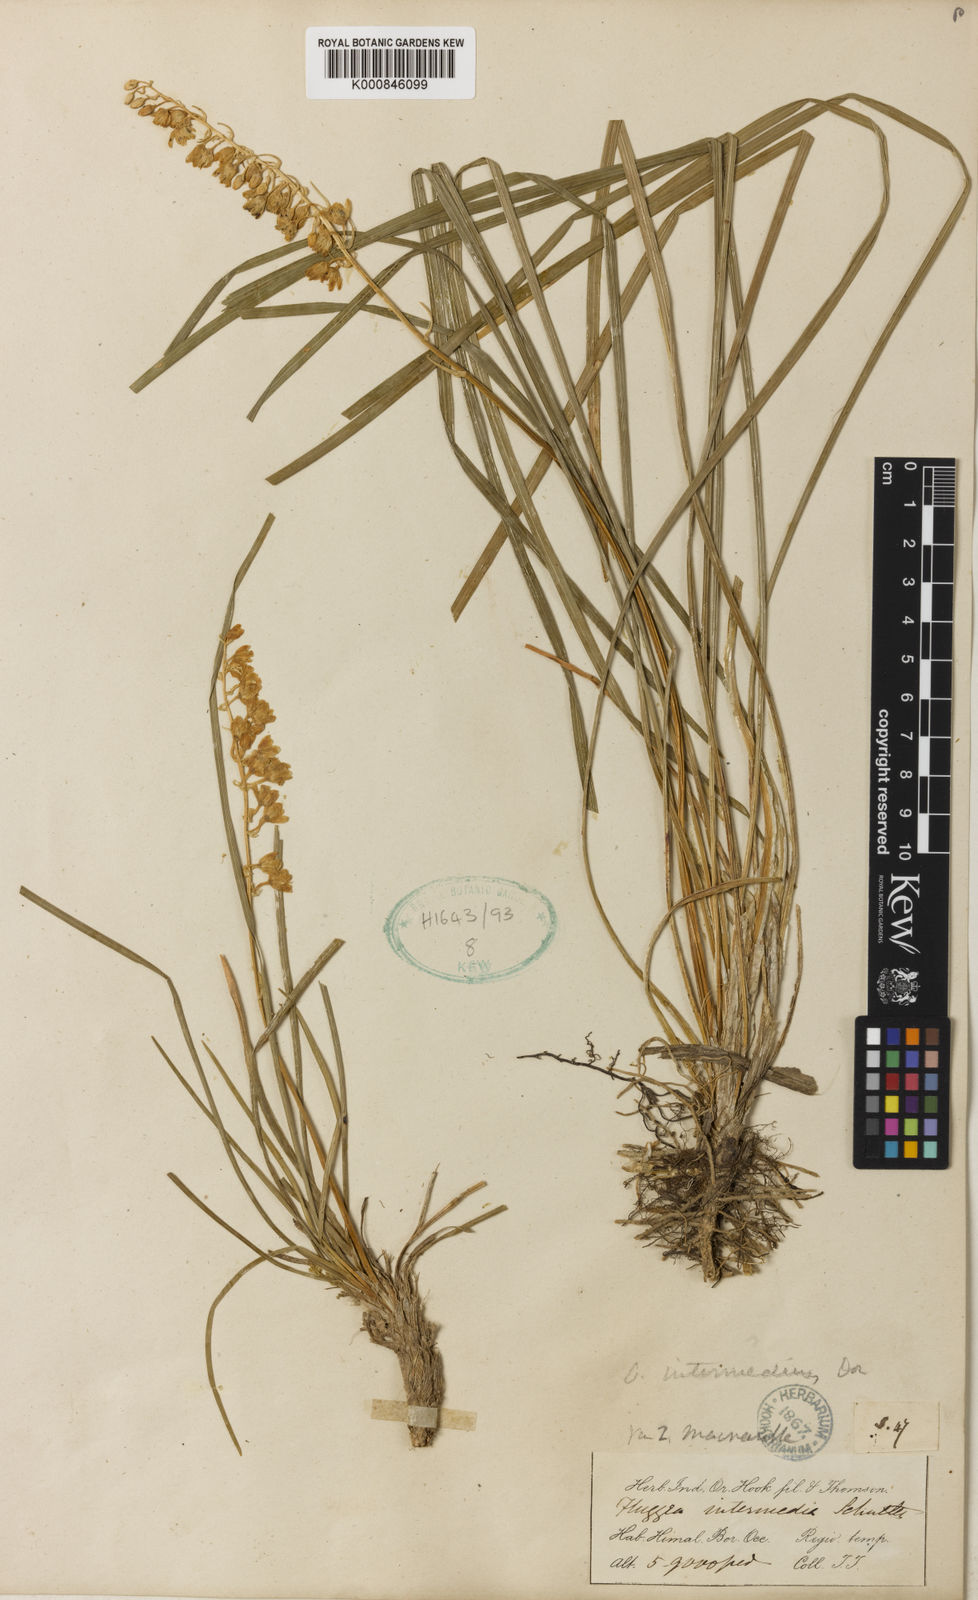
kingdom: Plantae
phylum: Tracheophyta
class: Liliopsida
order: Asparagales
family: Asparagaceae
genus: Ophiopogon
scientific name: Ophiopogon intermedius
